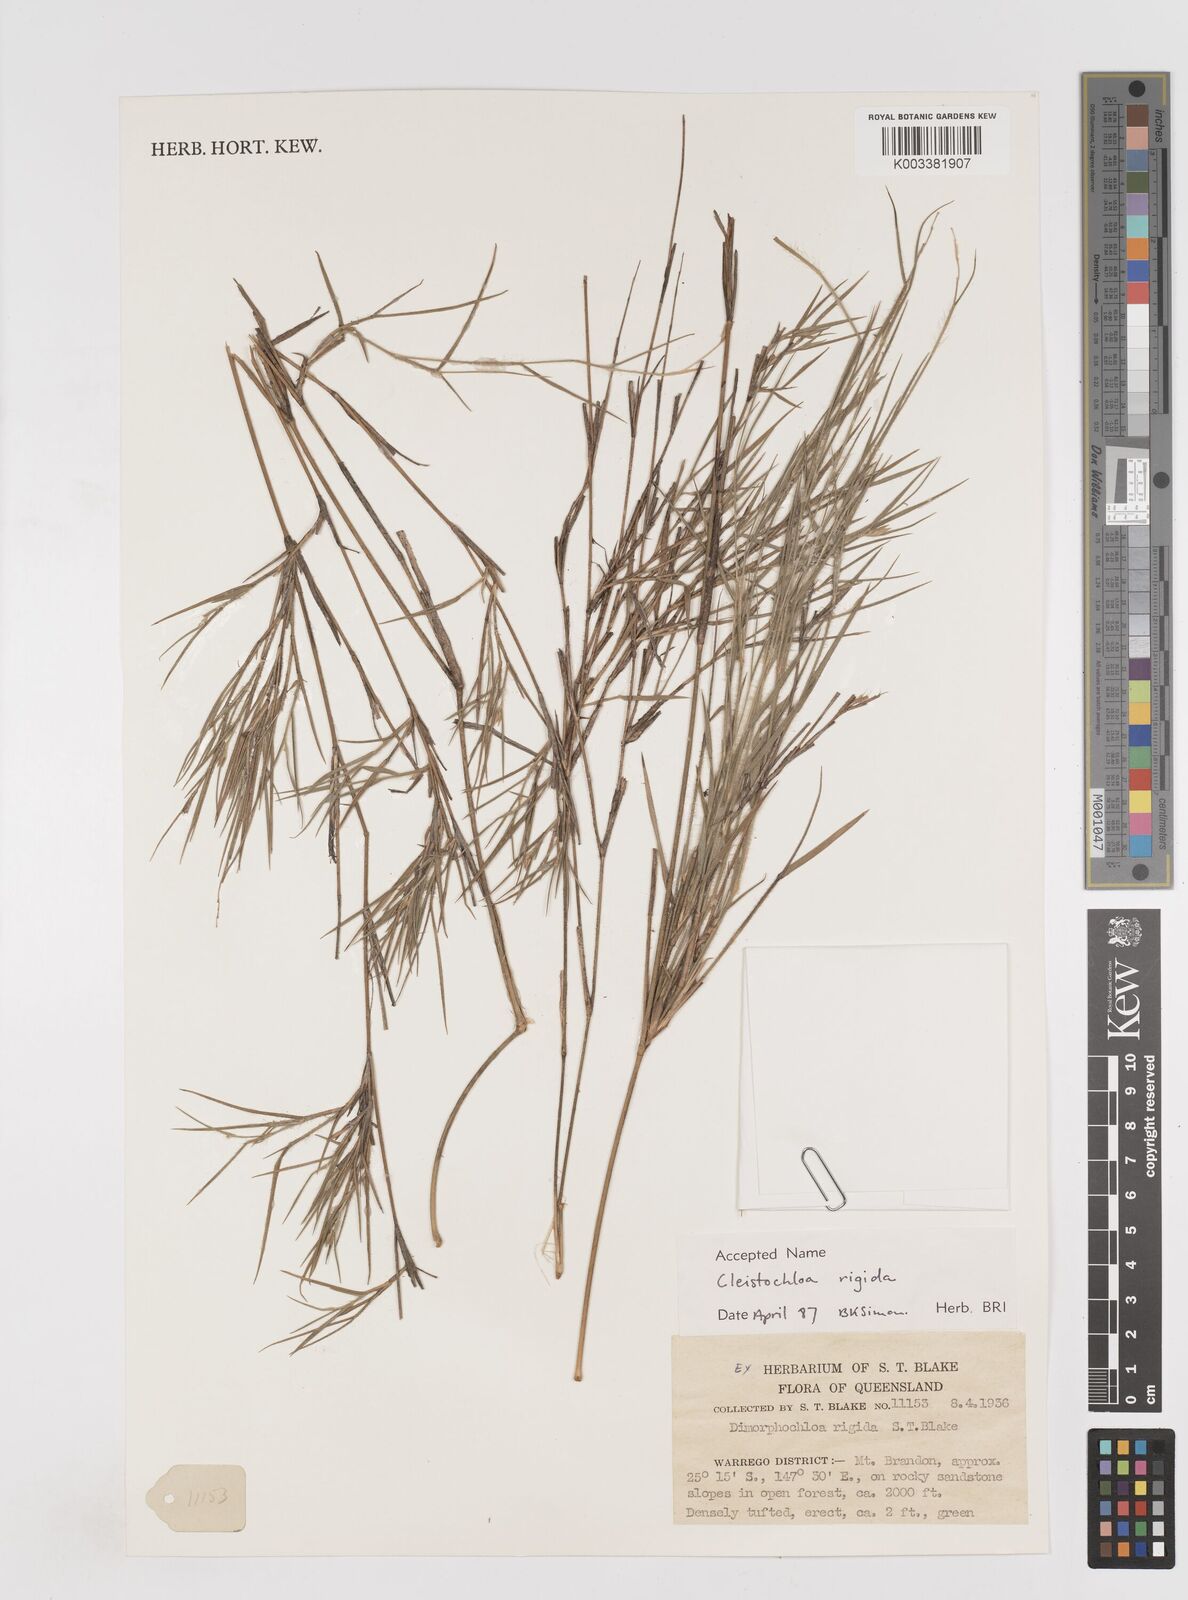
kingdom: Plantae
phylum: Tracheophyta
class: Liliopsida
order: Poales
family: Poaceae
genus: Dimorphochloa
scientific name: Dimorphochloa rigida
